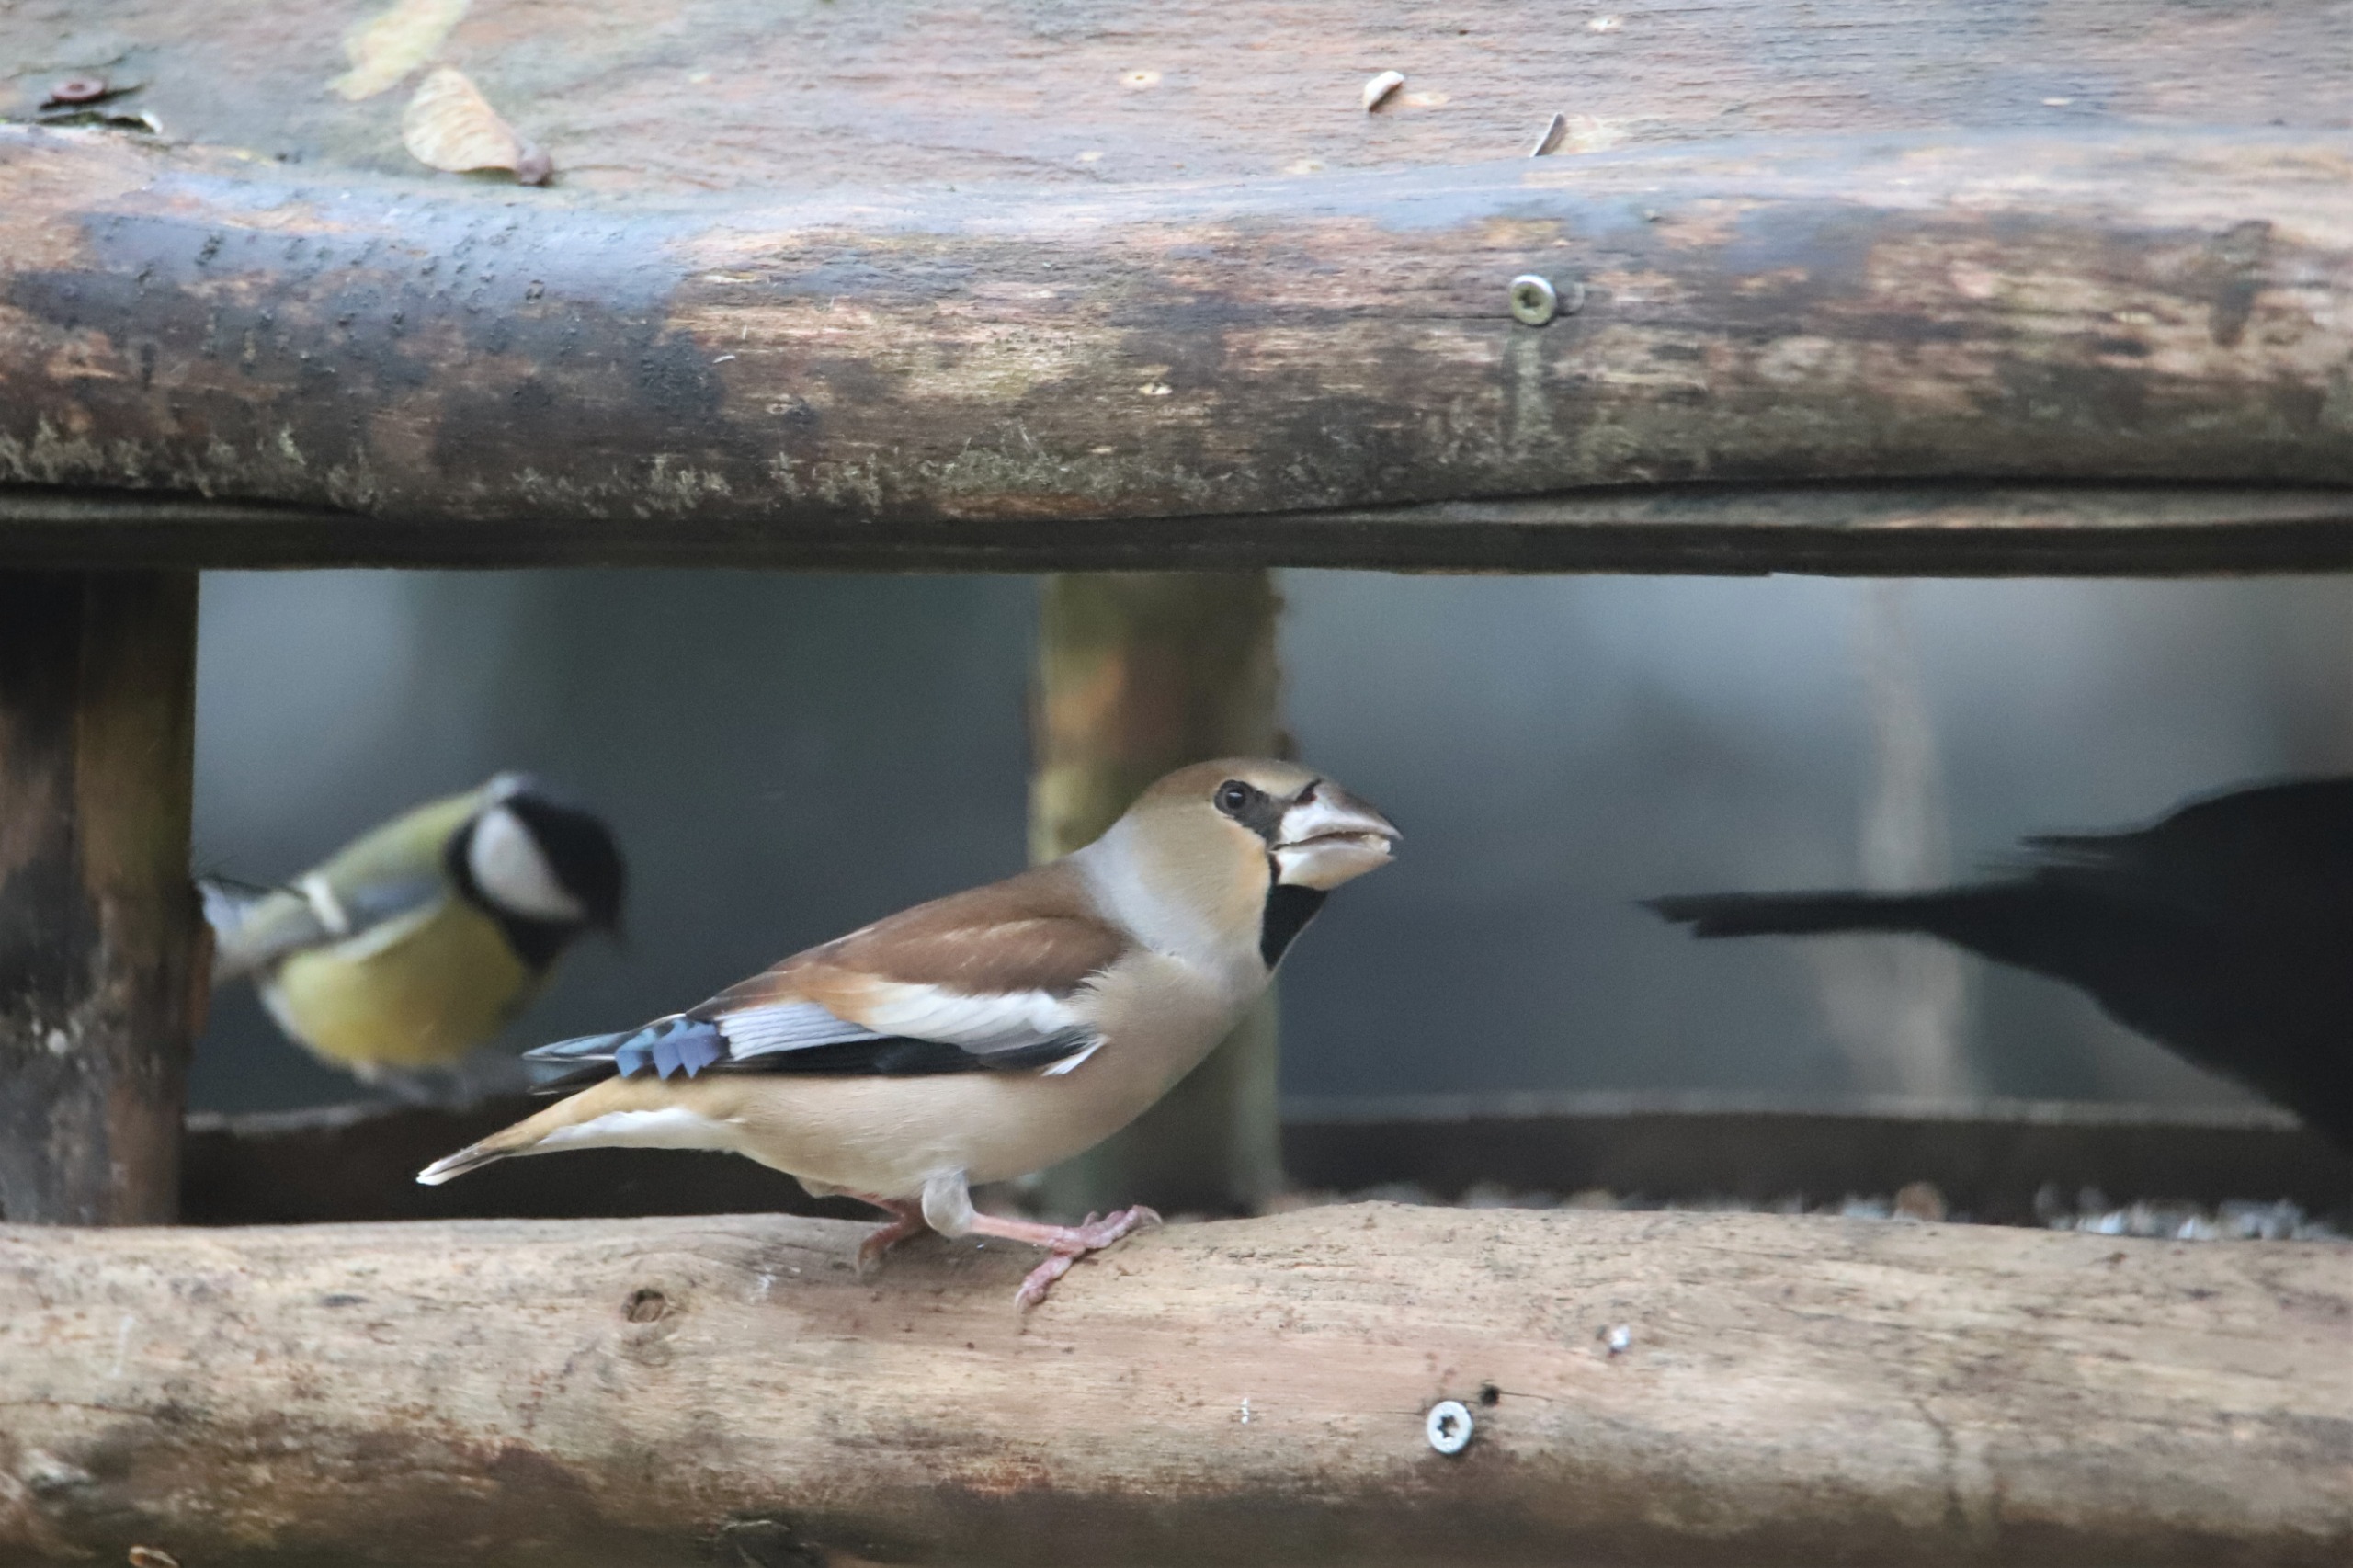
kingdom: Animalia
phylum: Chordata
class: Aves
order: Passeriformes
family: Fringillidae
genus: Coccothraustes
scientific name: Coccothraustes coccothraustes
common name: Kernebider
